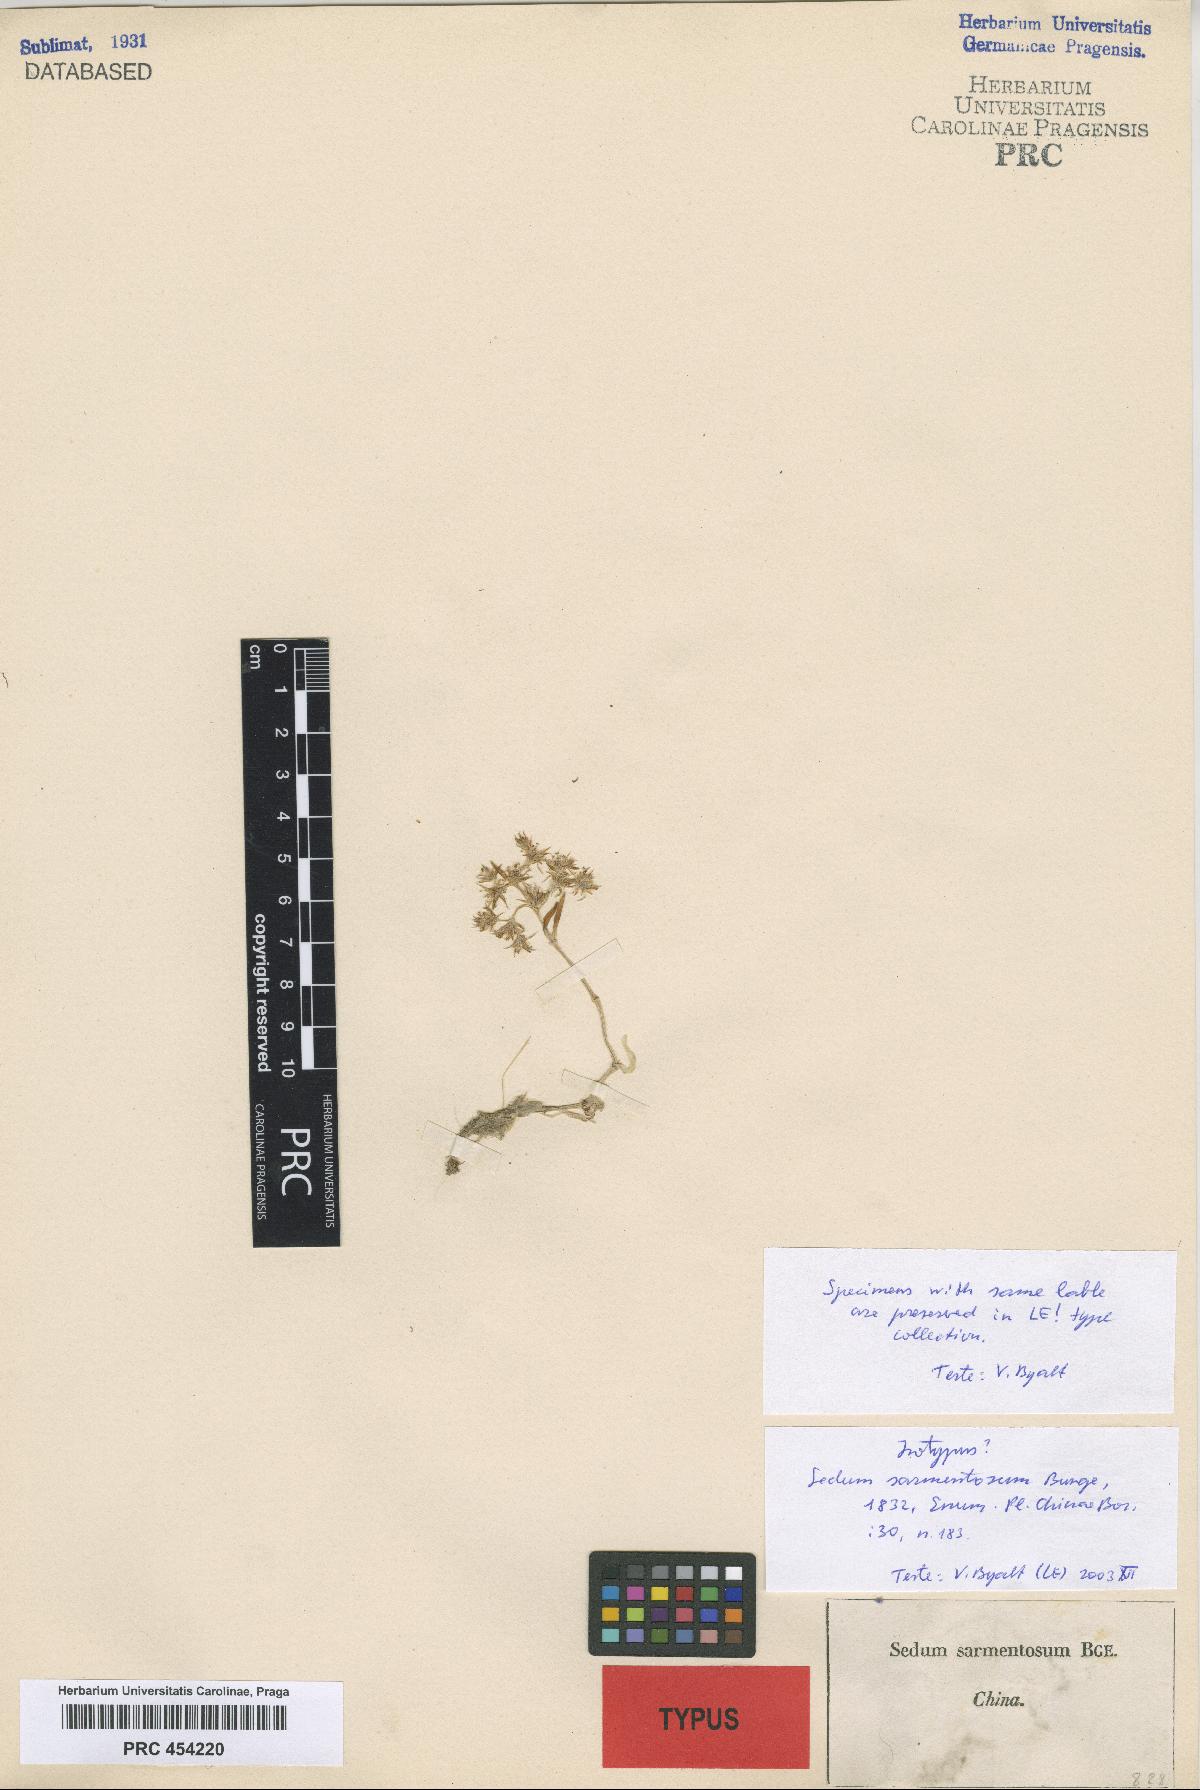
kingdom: Plantae
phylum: Tracheophyta
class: Magnoliopsida
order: Saxifragales
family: Crassulaceae
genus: Sedum
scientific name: Sedum sarmentosum
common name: Stringy stonecrop
